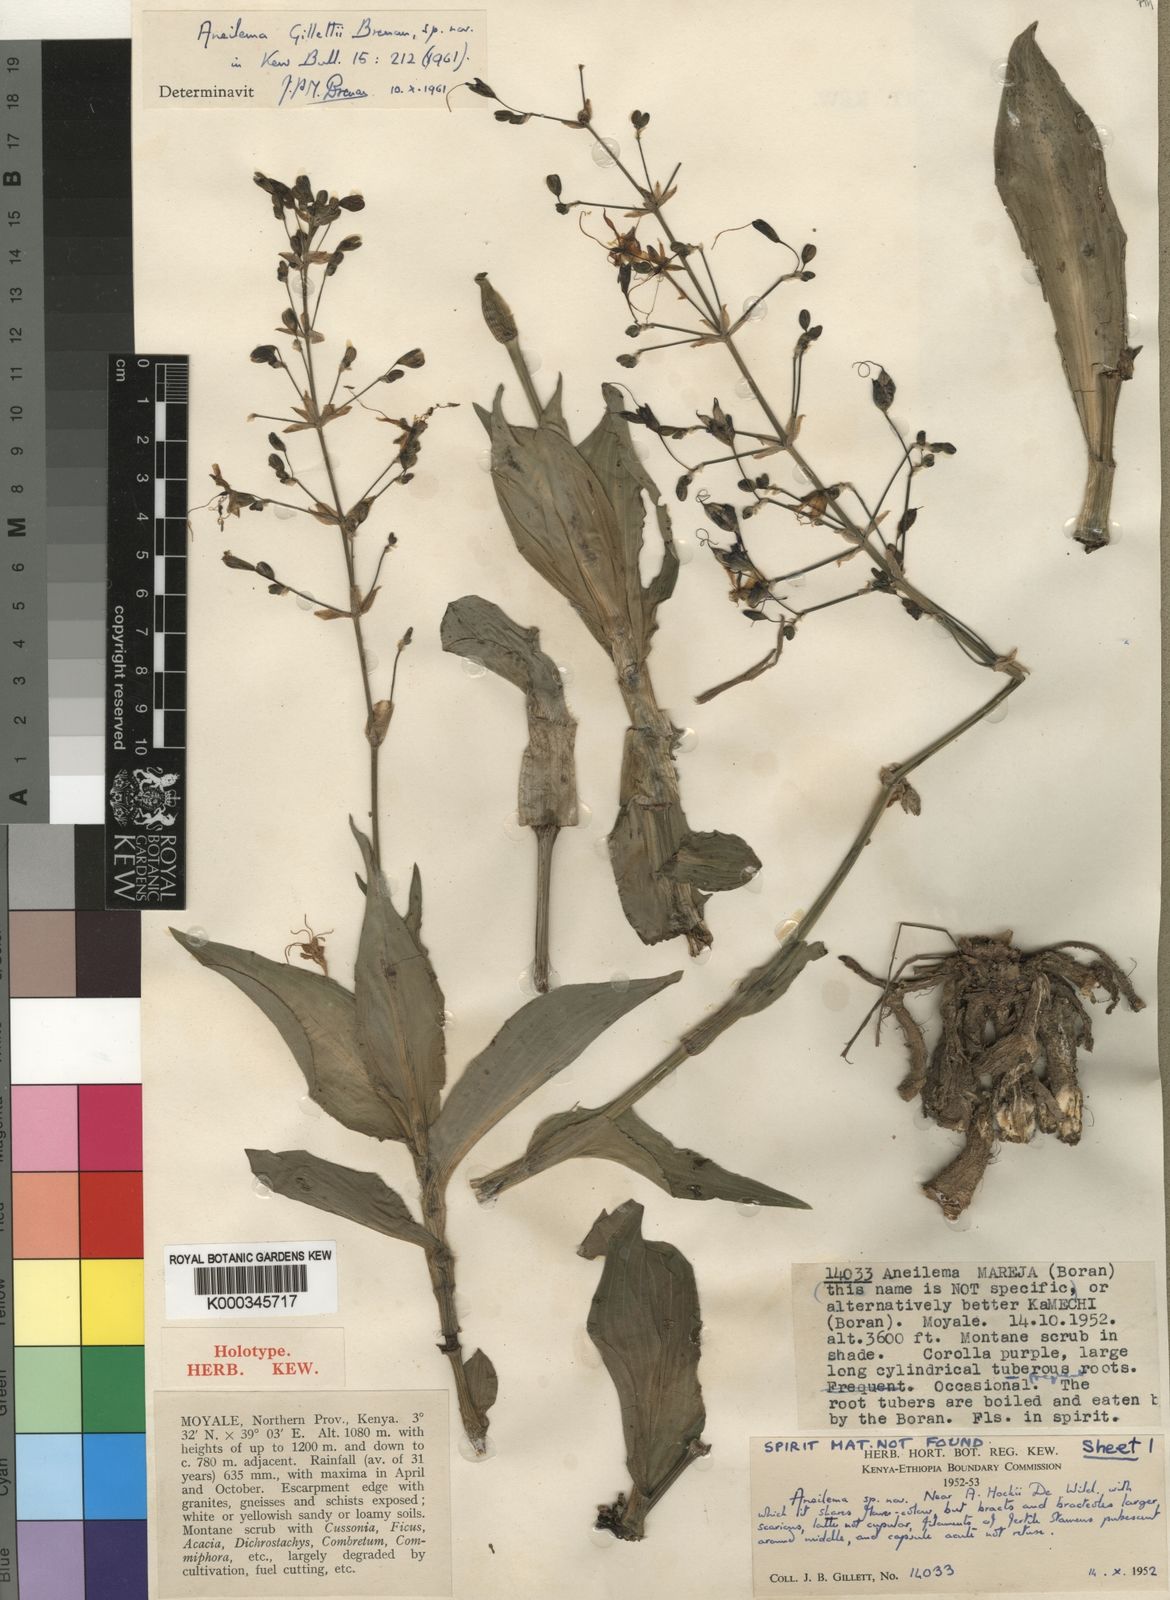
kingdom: Plantae
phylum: Tracheophyta
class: Liliopsida
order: Commelinales
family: Commelinaceae
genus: Aneilema
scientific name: Aneilema gillettii
